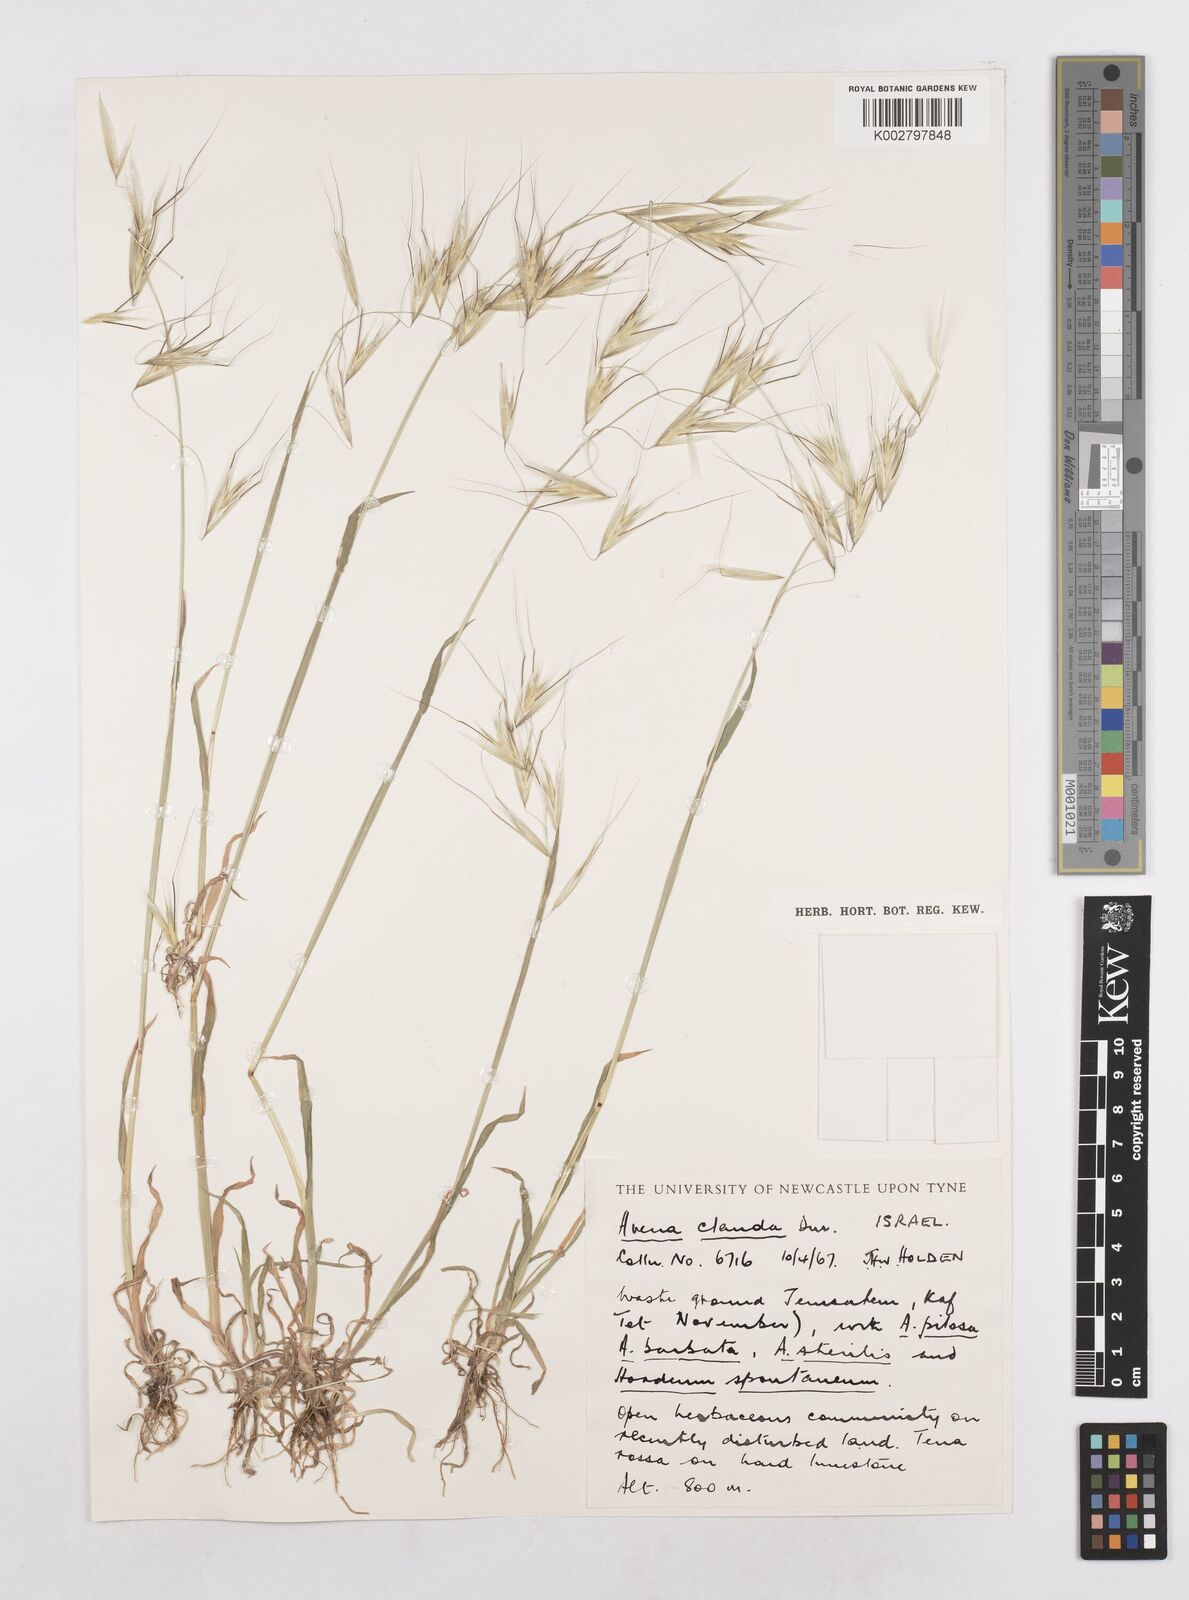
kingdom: Plantae
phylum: Tracheophyta
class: Liliopsida
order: Poales
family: Poaceae
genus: Avena
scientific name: Avena clauda
